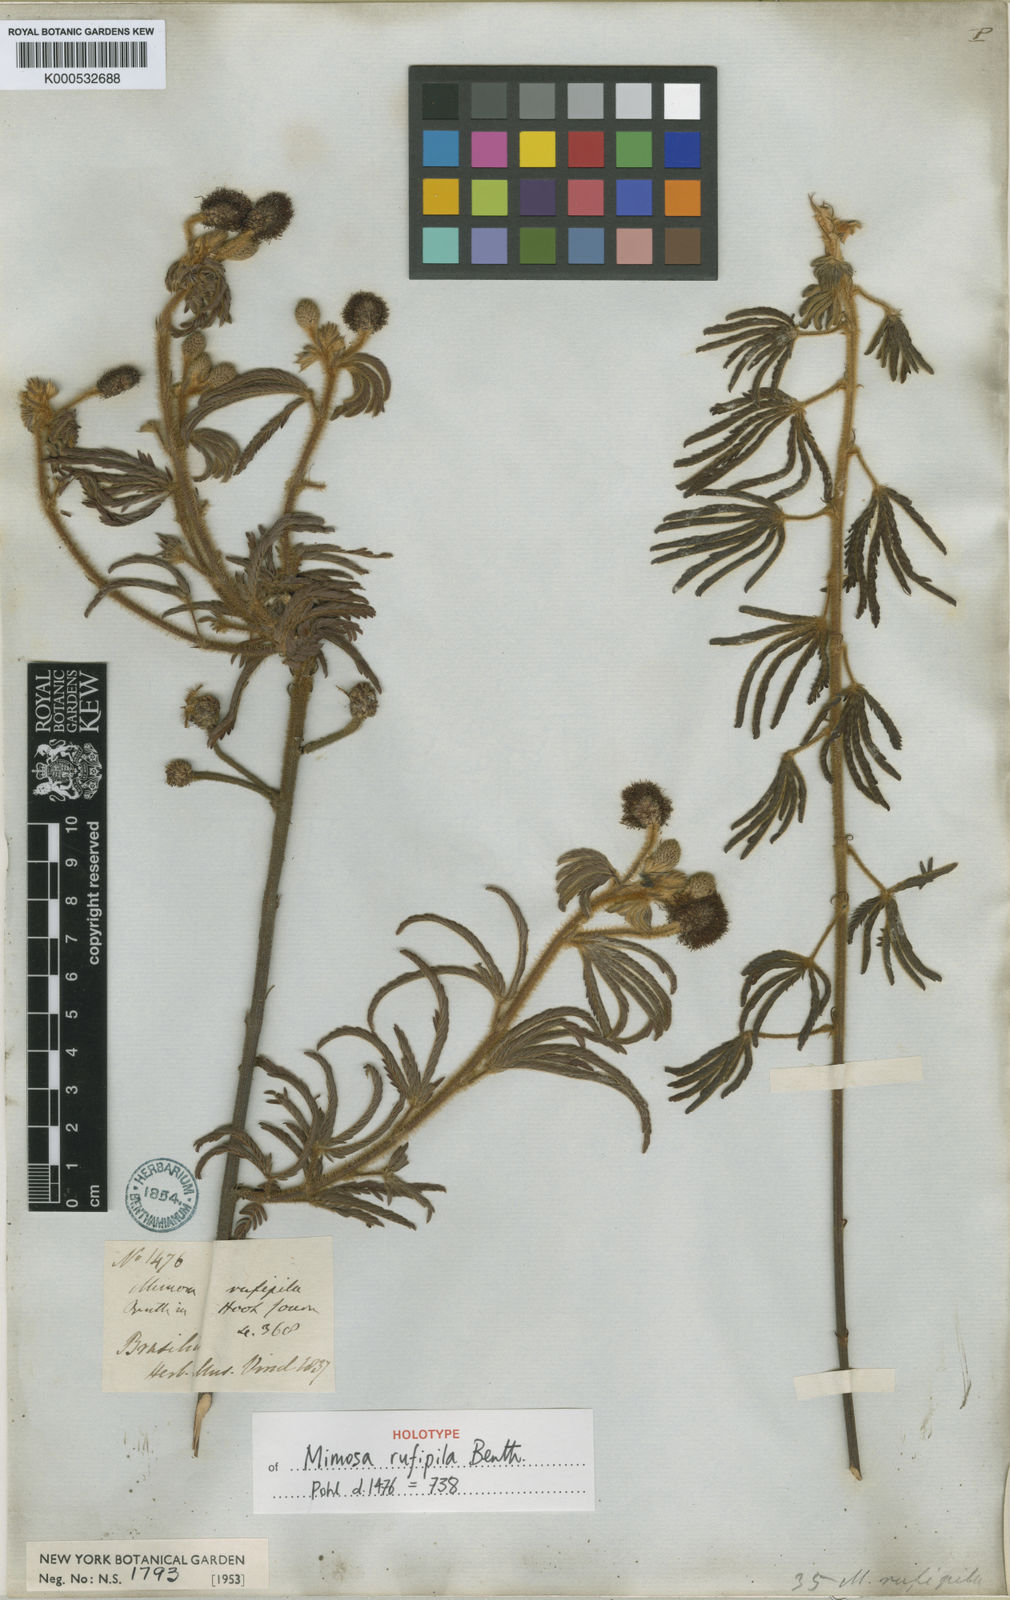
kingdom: Plantae
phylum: Tracheophyta
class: Magnoliopsida
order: Fabales
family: Fabaceae
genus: Mimosa
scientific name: Mimosa rufipila
